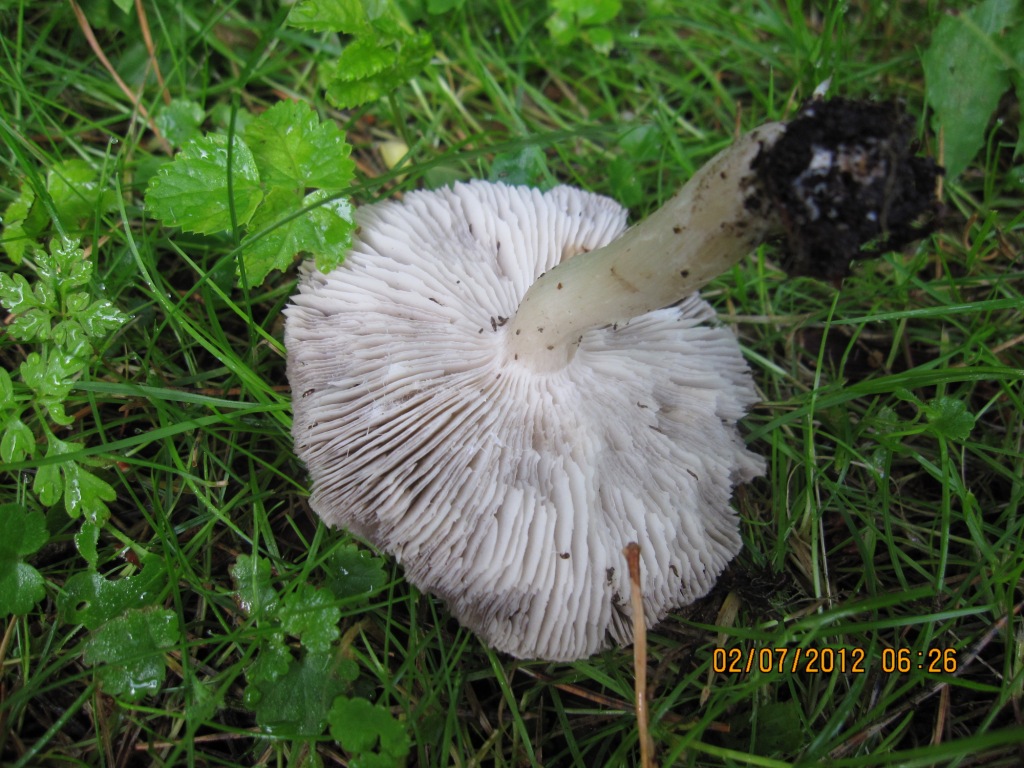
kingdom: Fungi
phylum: Basidiomycota
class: Agaricomycetes
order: Agaricales
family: Tricholomataceae
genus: Tricholoma
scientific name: Tricholoma terreum
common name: jordfarvet ridderhat
